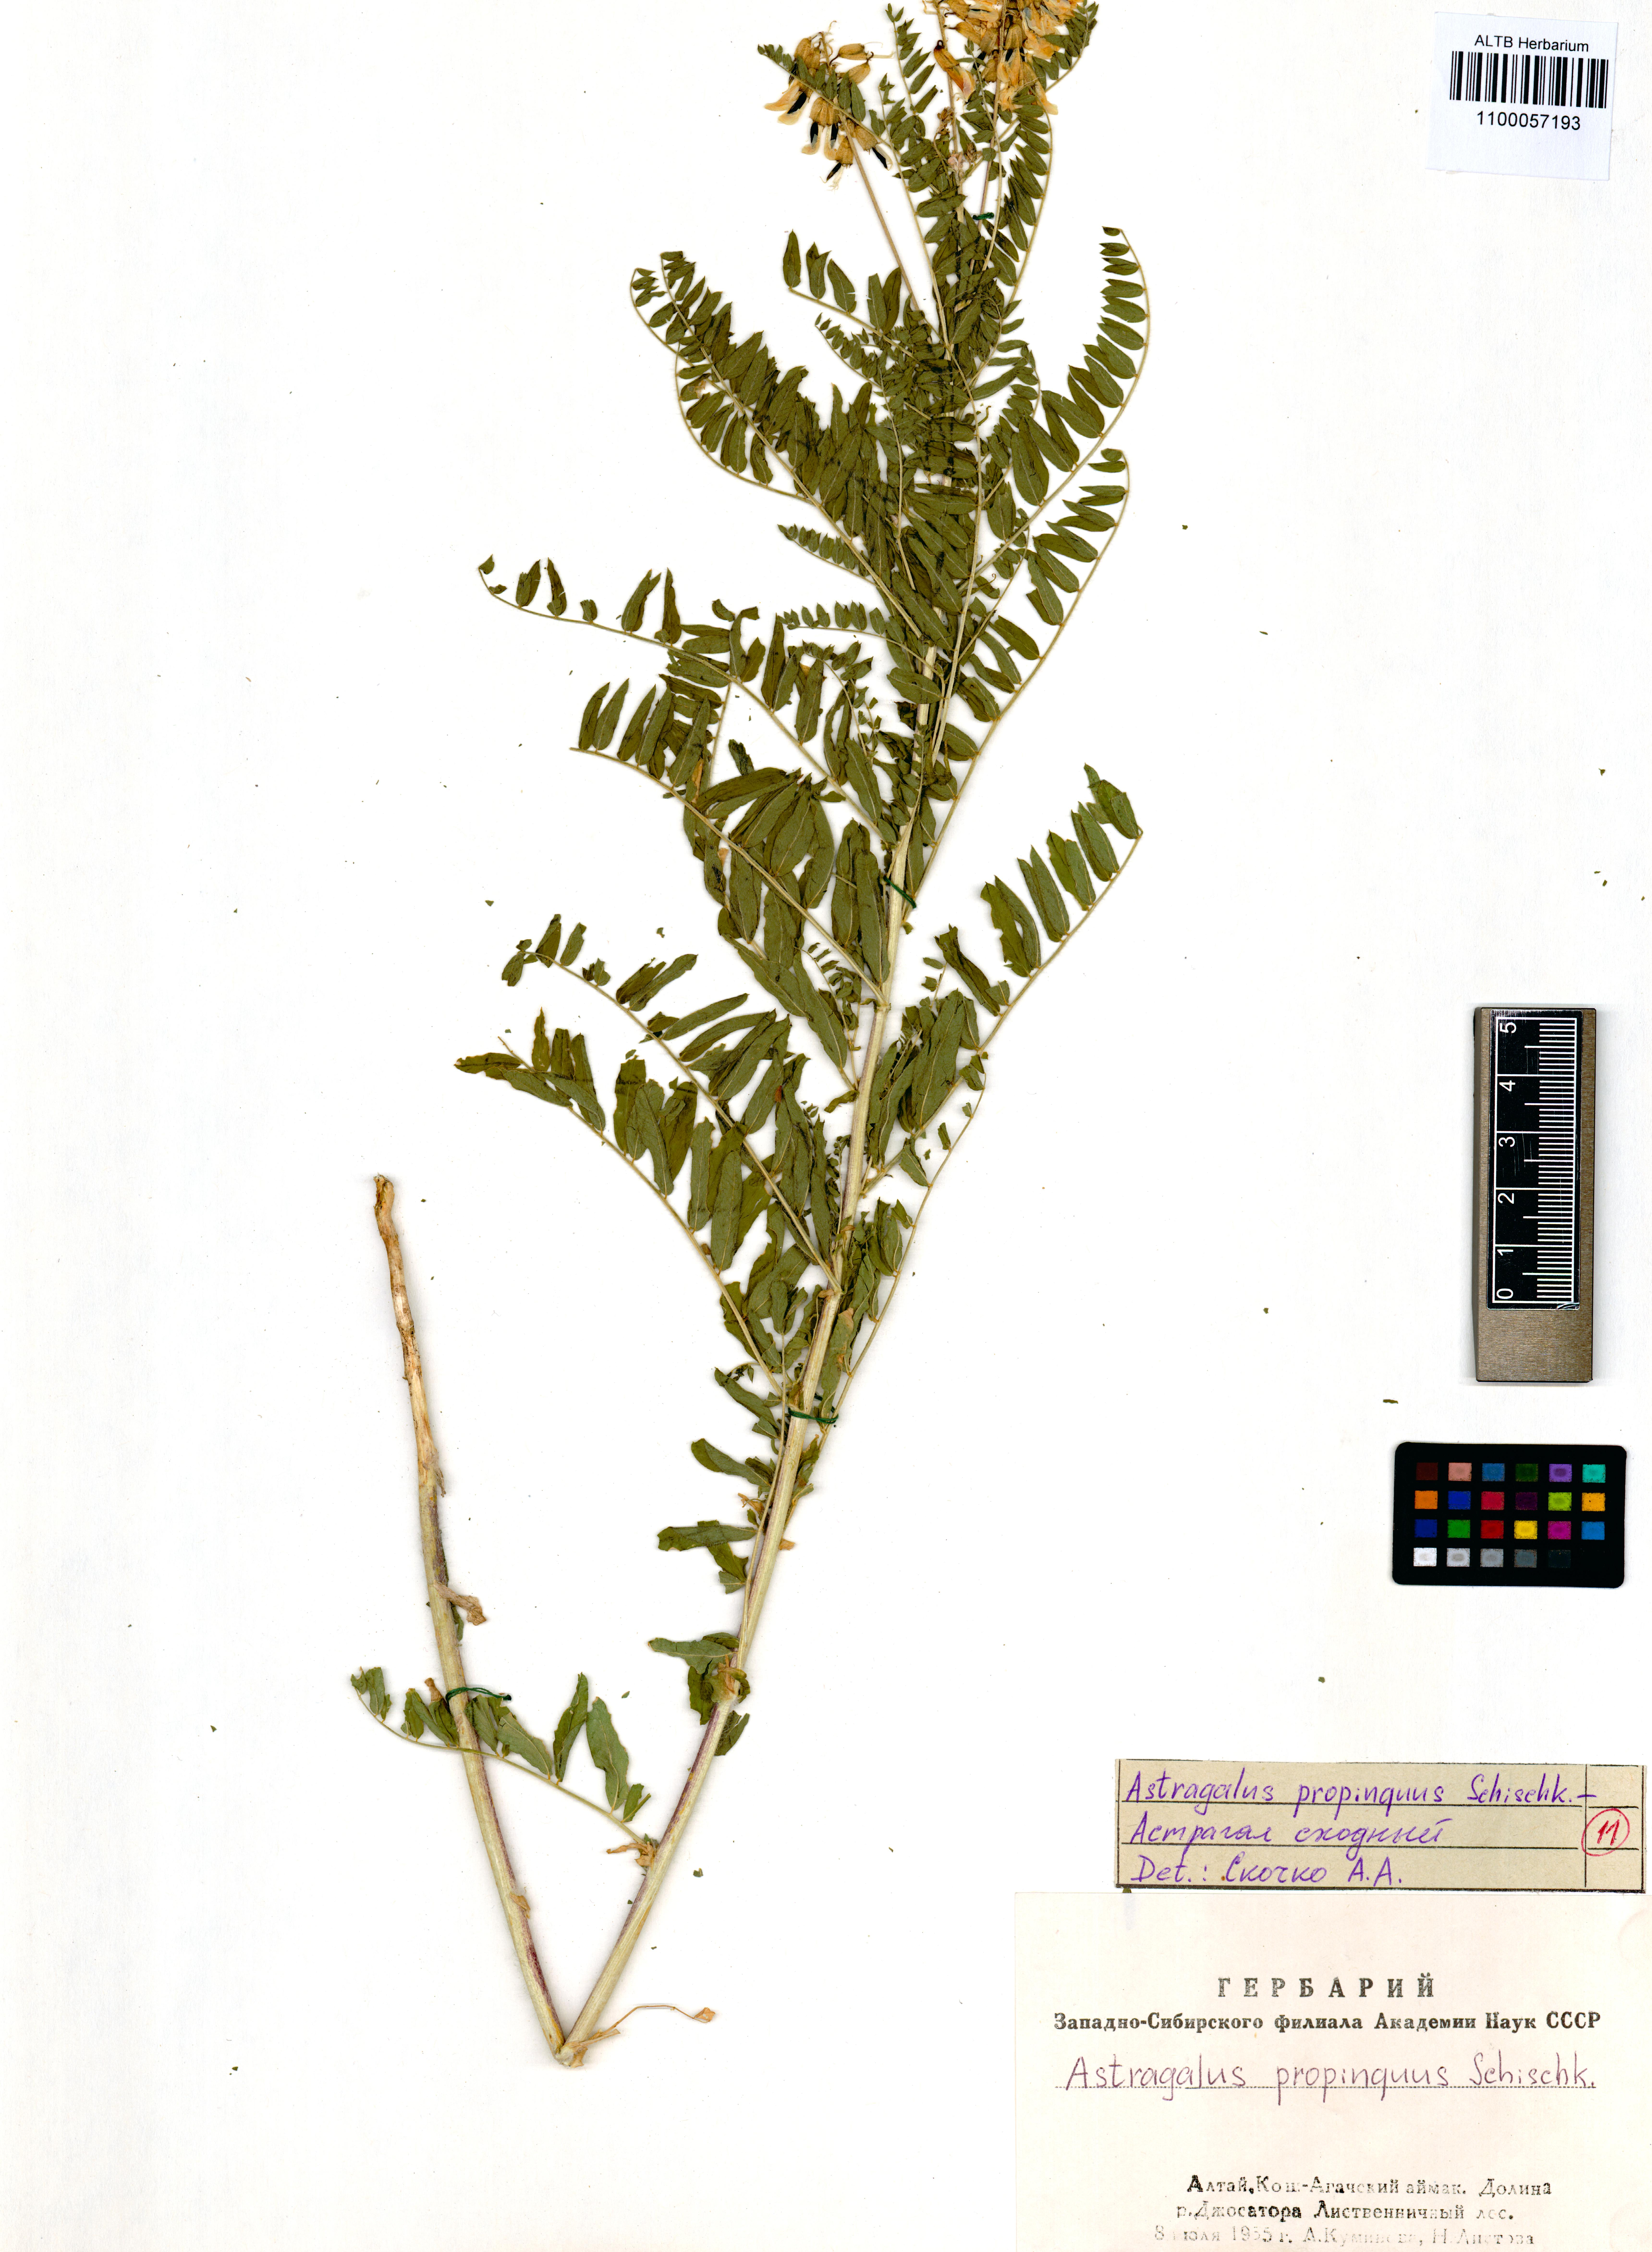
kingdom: Plantae
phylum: Tracheophyta
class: Magnoliopsida
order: Fabales
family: Fabaceae
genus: Astragalus
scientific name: Astragalus mongholicus
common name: Membranous milk-vetch
